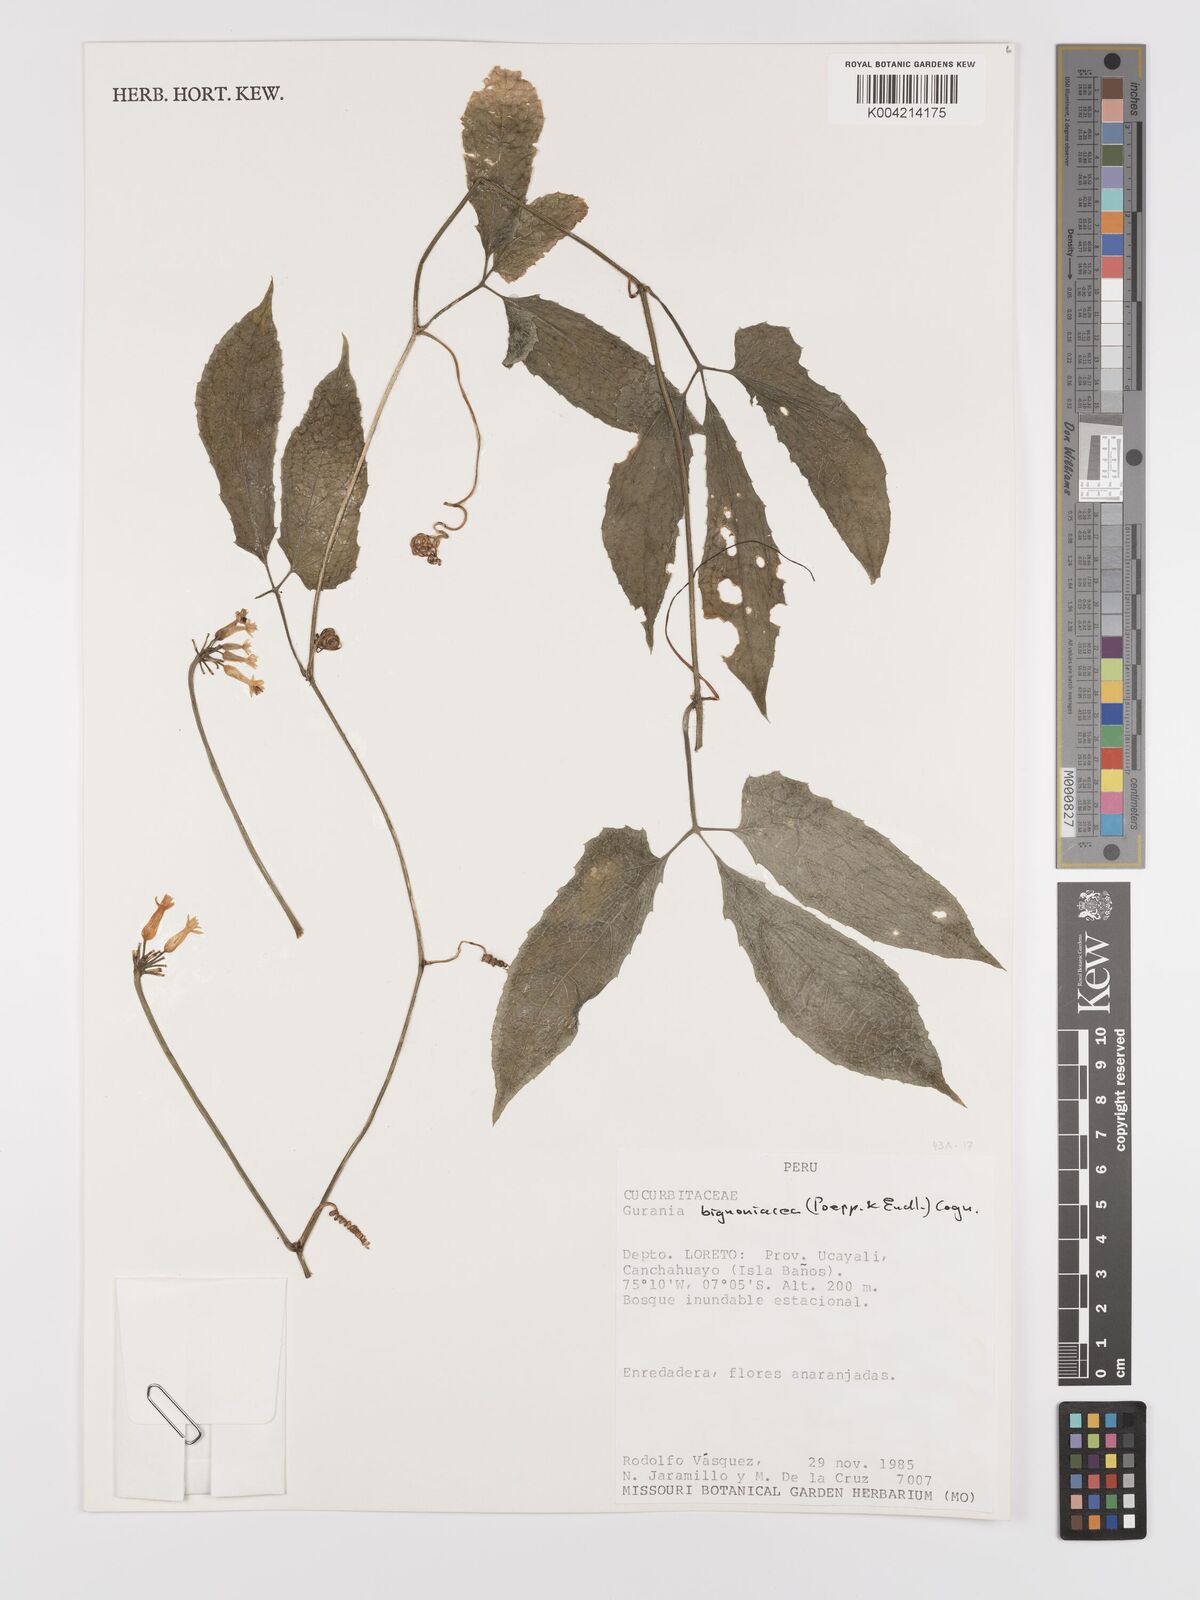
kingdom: Plantae
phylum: Tracheophyta
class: Magnoliopsida
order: Cucurbitales
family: Cucurbitaceae
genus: Gurania
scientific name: Gurania bignoniacea
